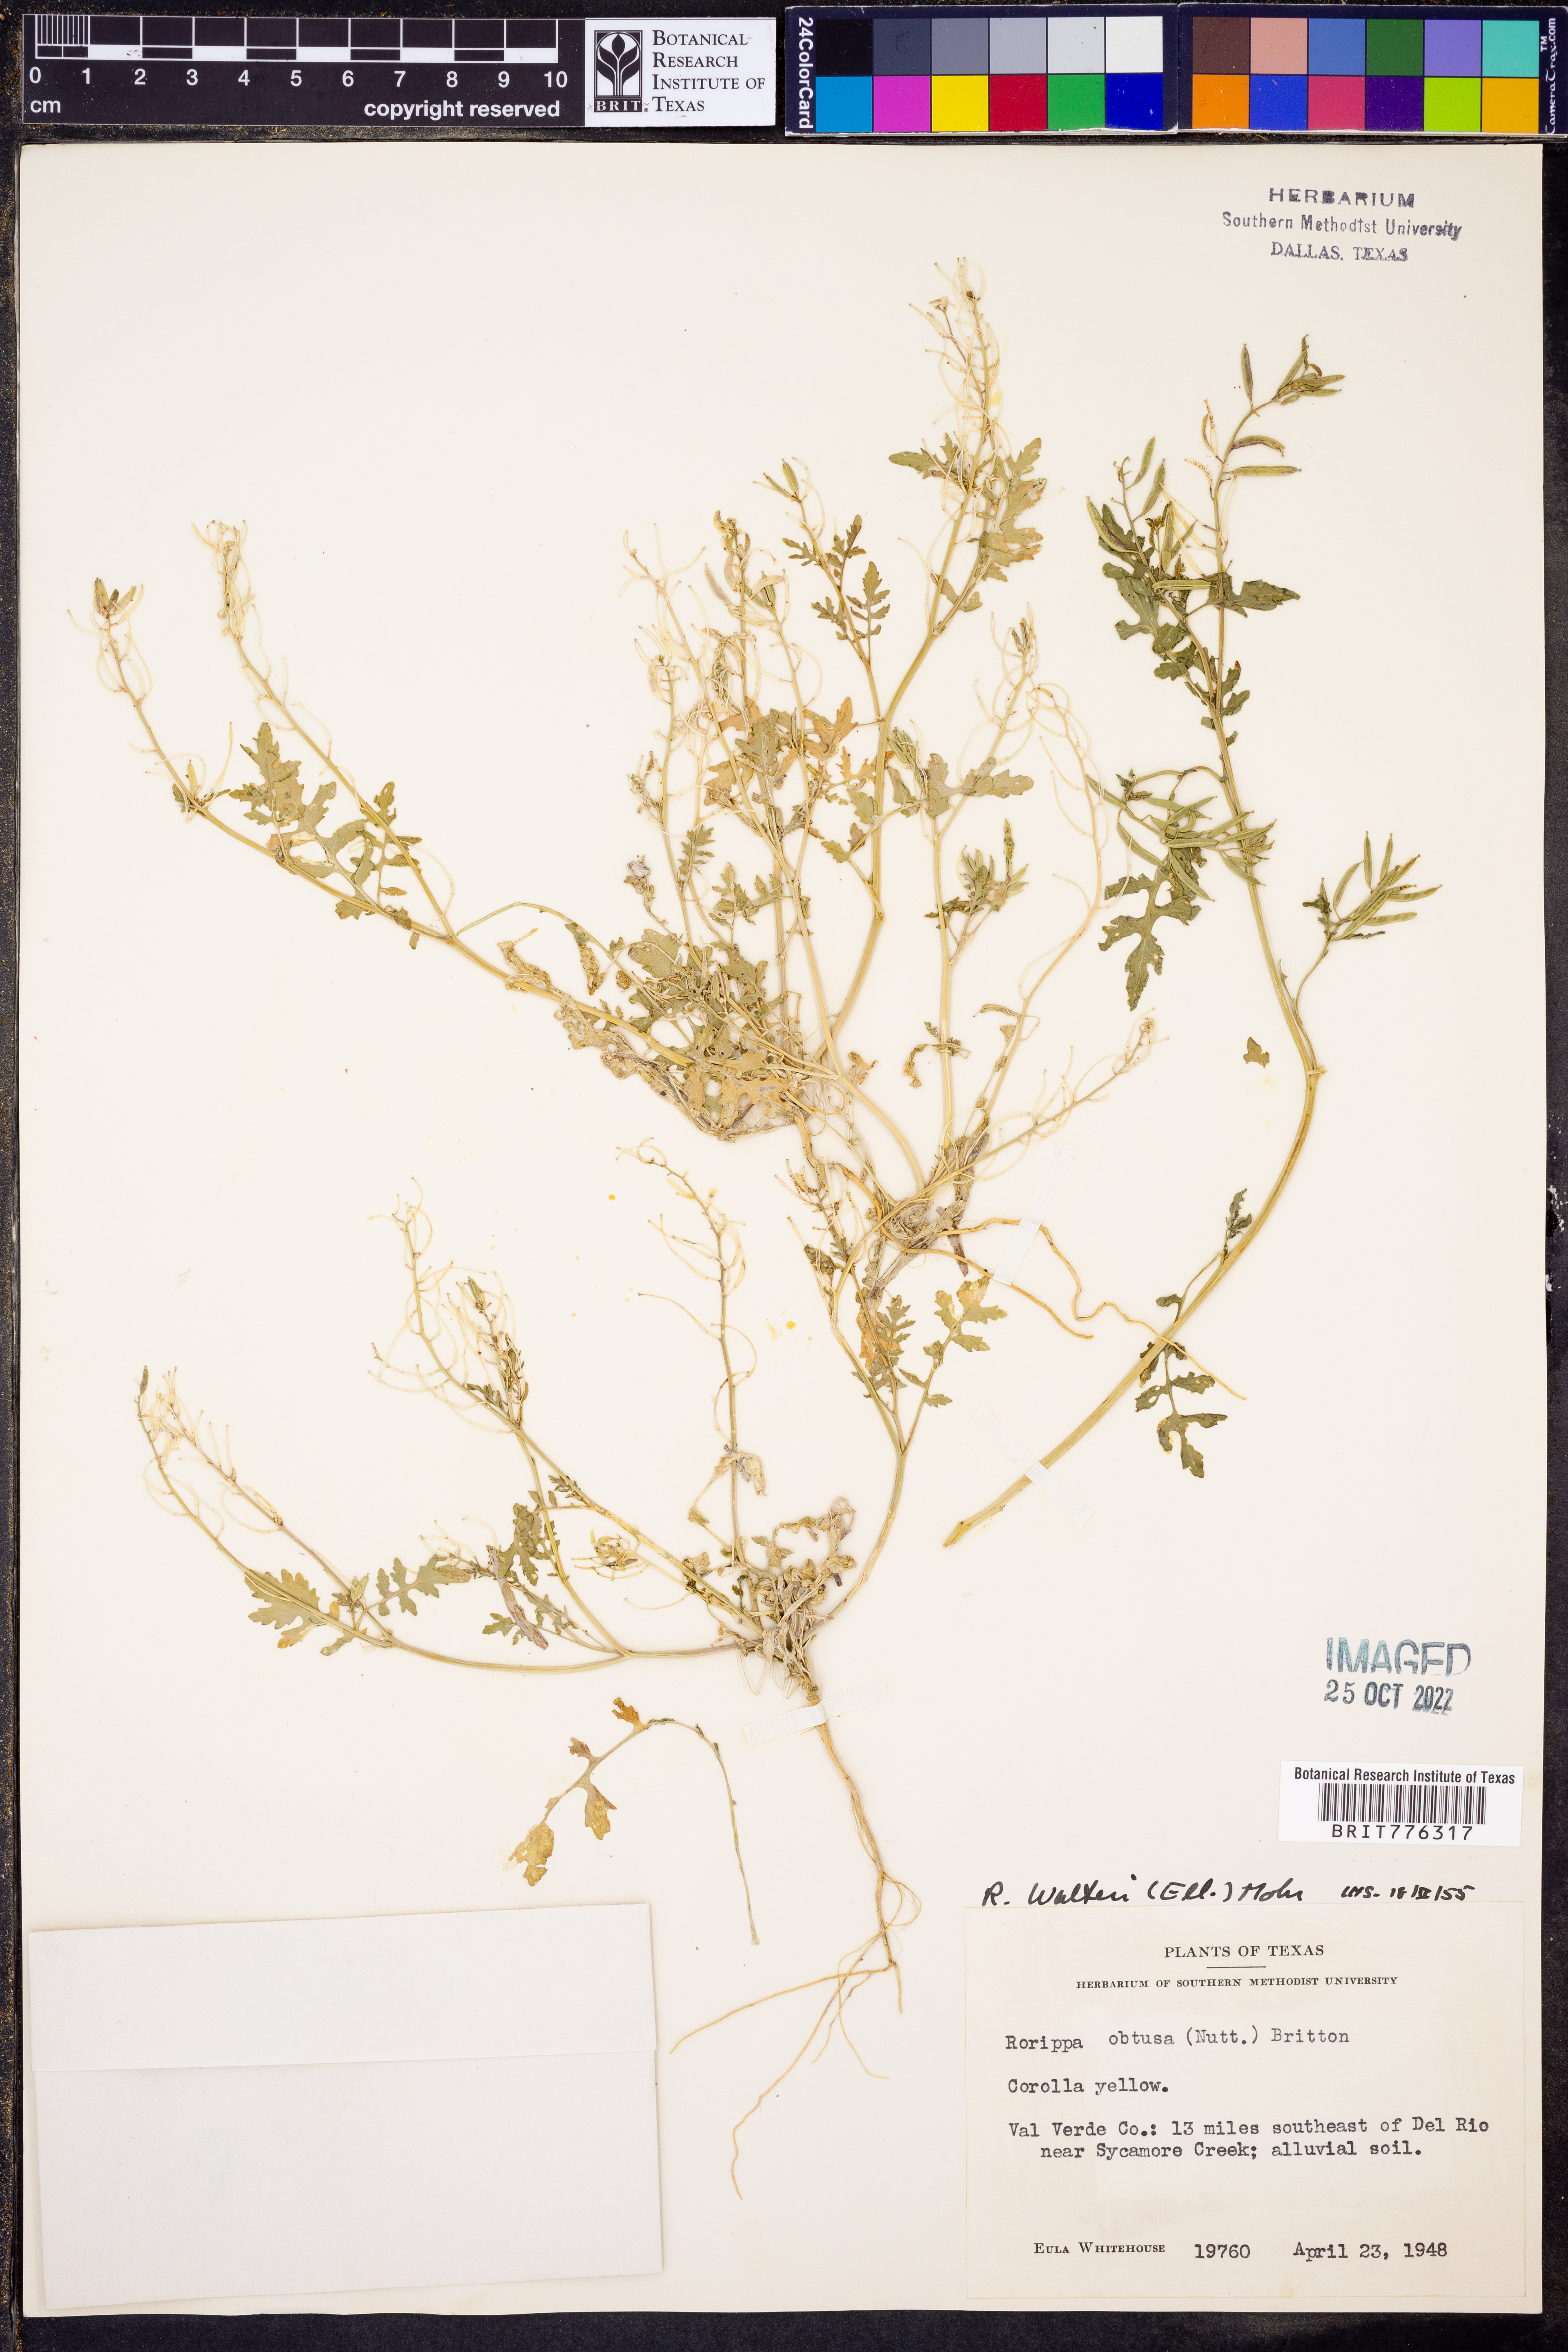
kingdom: Plantae
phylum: Tracheophyta
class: Magnoliopsida
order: Brassicales
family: Brassicaceae
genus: Rorippa
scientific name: Rorippa teres
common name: Southern marsh yellowcress
